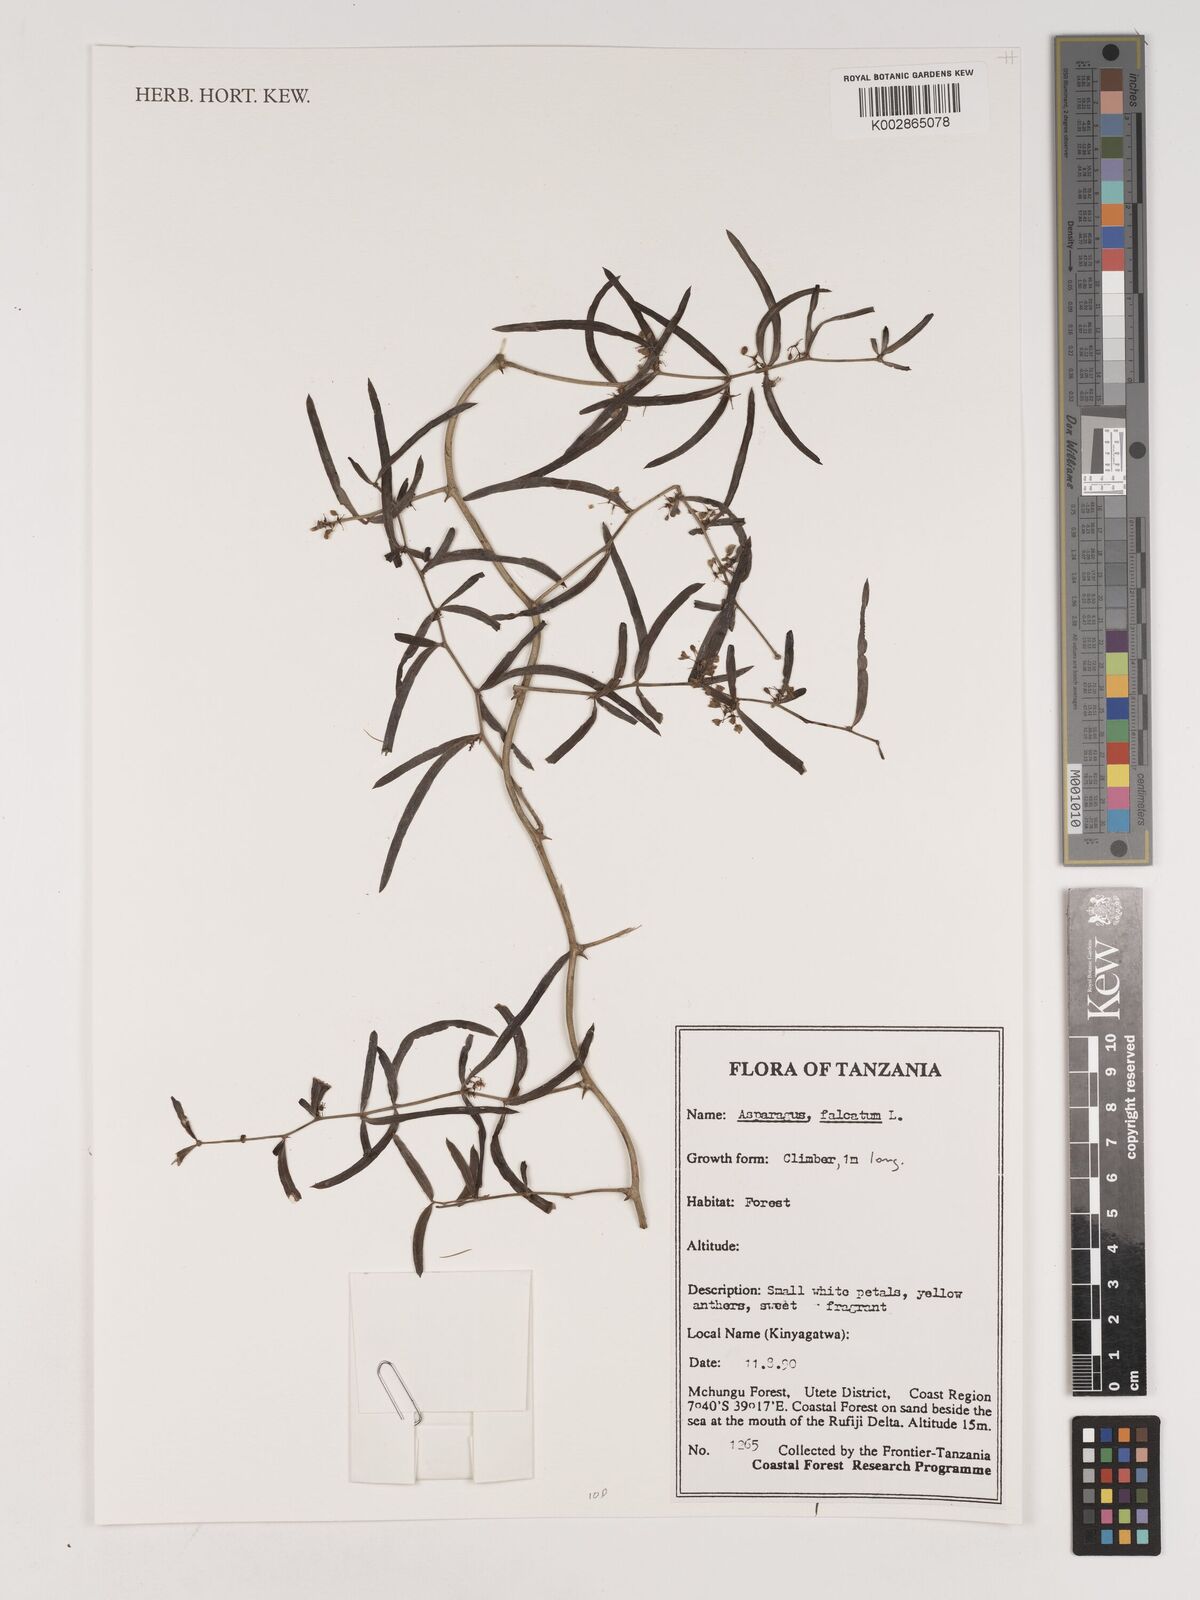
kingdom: Plantae
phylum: Tracheophyta
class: Liliopsida
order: Asparagales
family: Asparagaceae
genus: Asparagus
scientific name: Asparagus falcatus
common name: Asparagus
